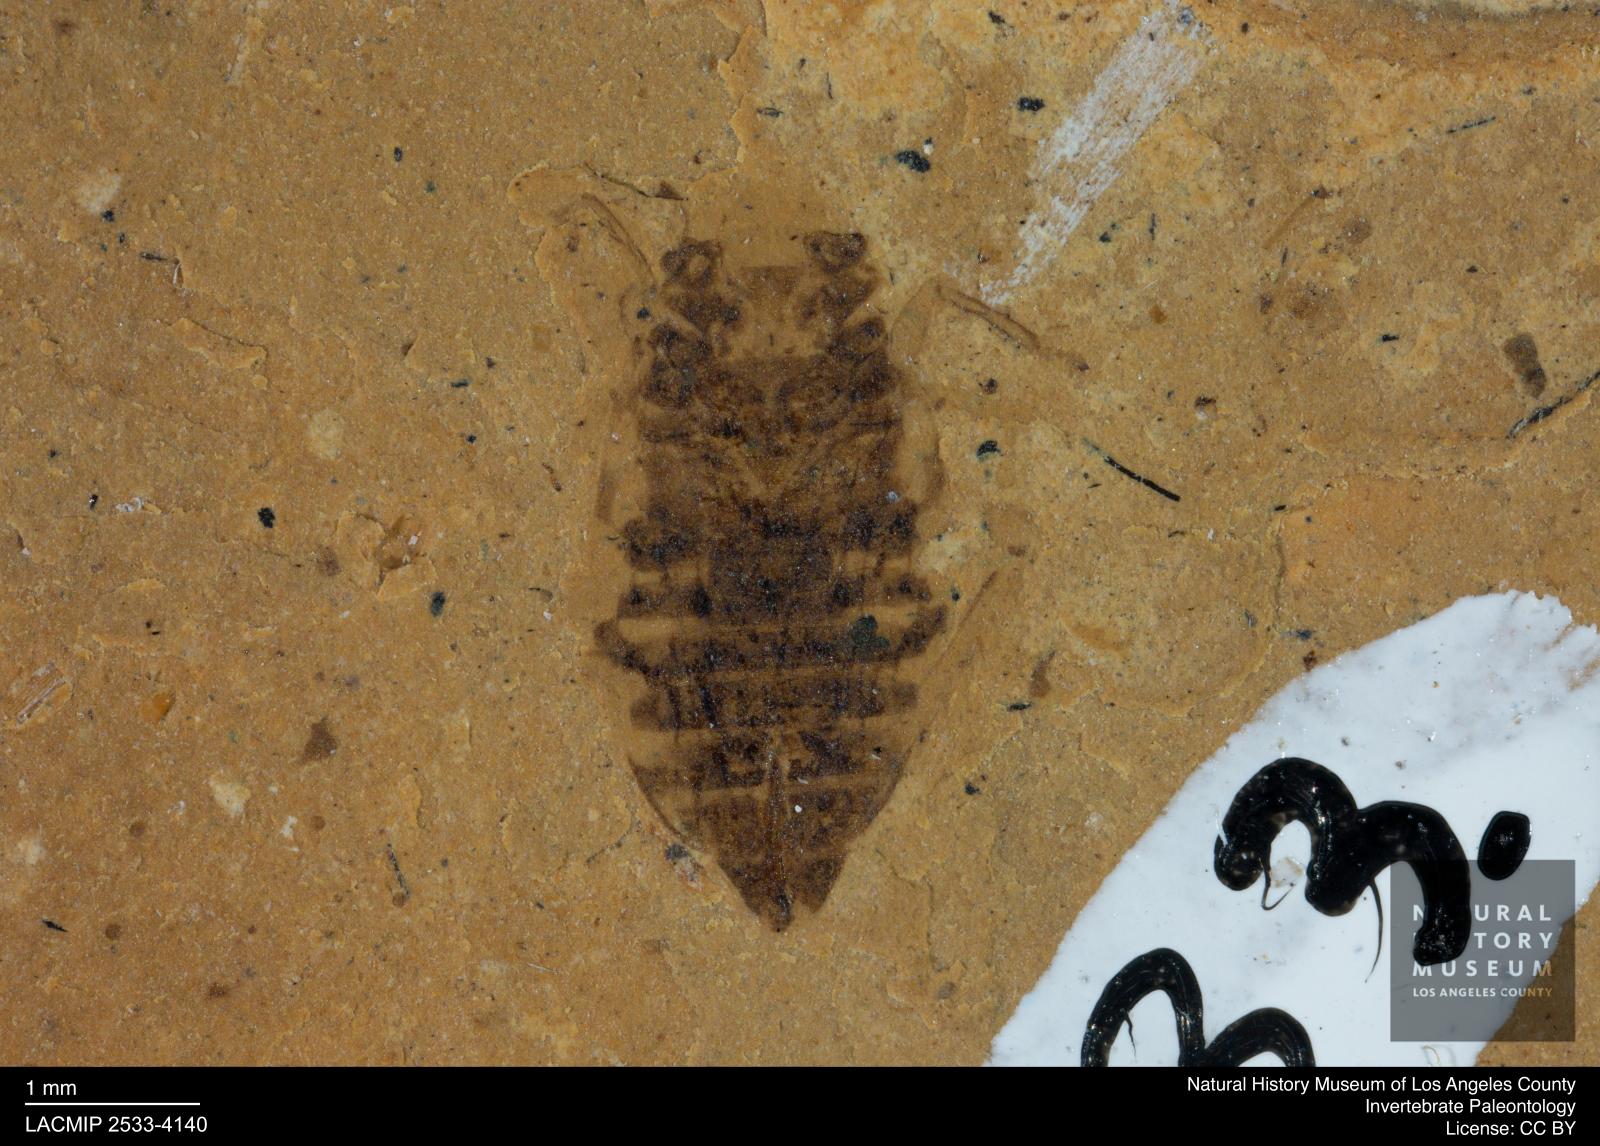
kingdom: Animalia
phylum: Arthropoda
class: Insecta
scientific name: Insecta
